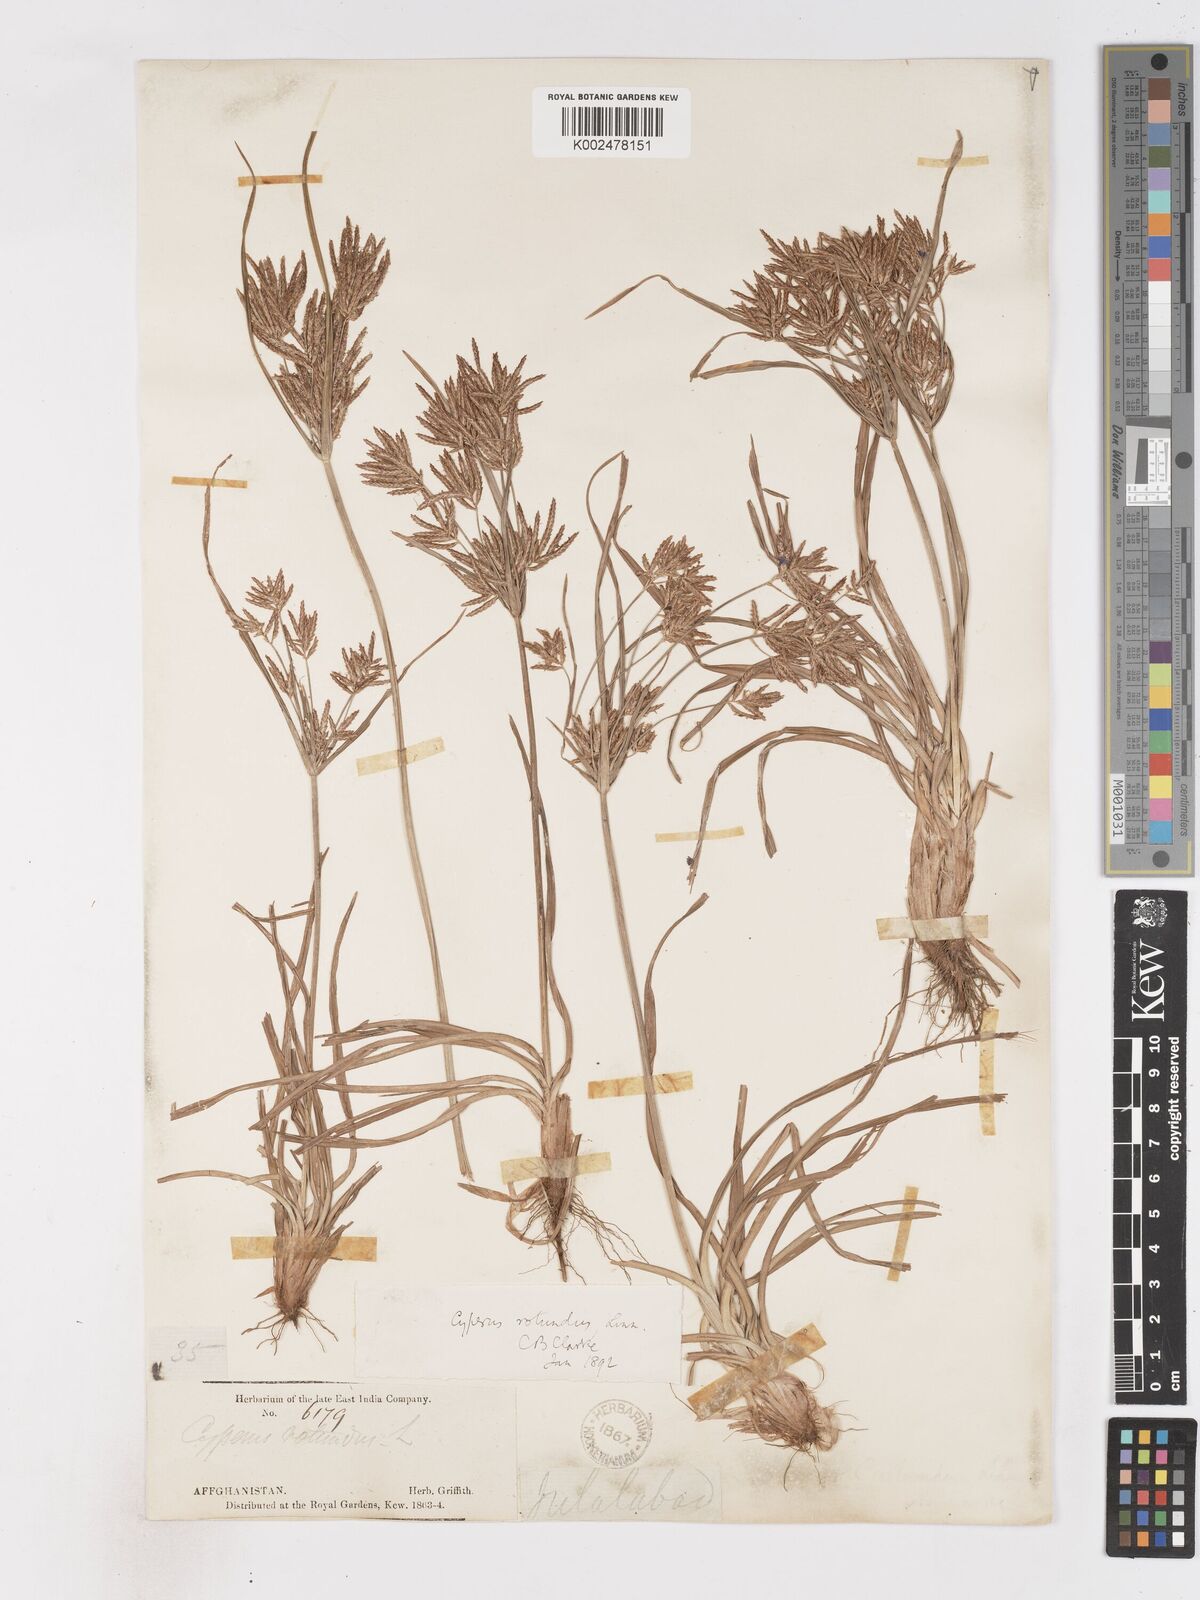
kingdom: Plantae
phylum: Tracheophyta
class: Liliopsida
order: Poales
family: Cyperaceae
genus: Cyperus
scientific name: Cyperus rotundus
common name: Nutgrass
